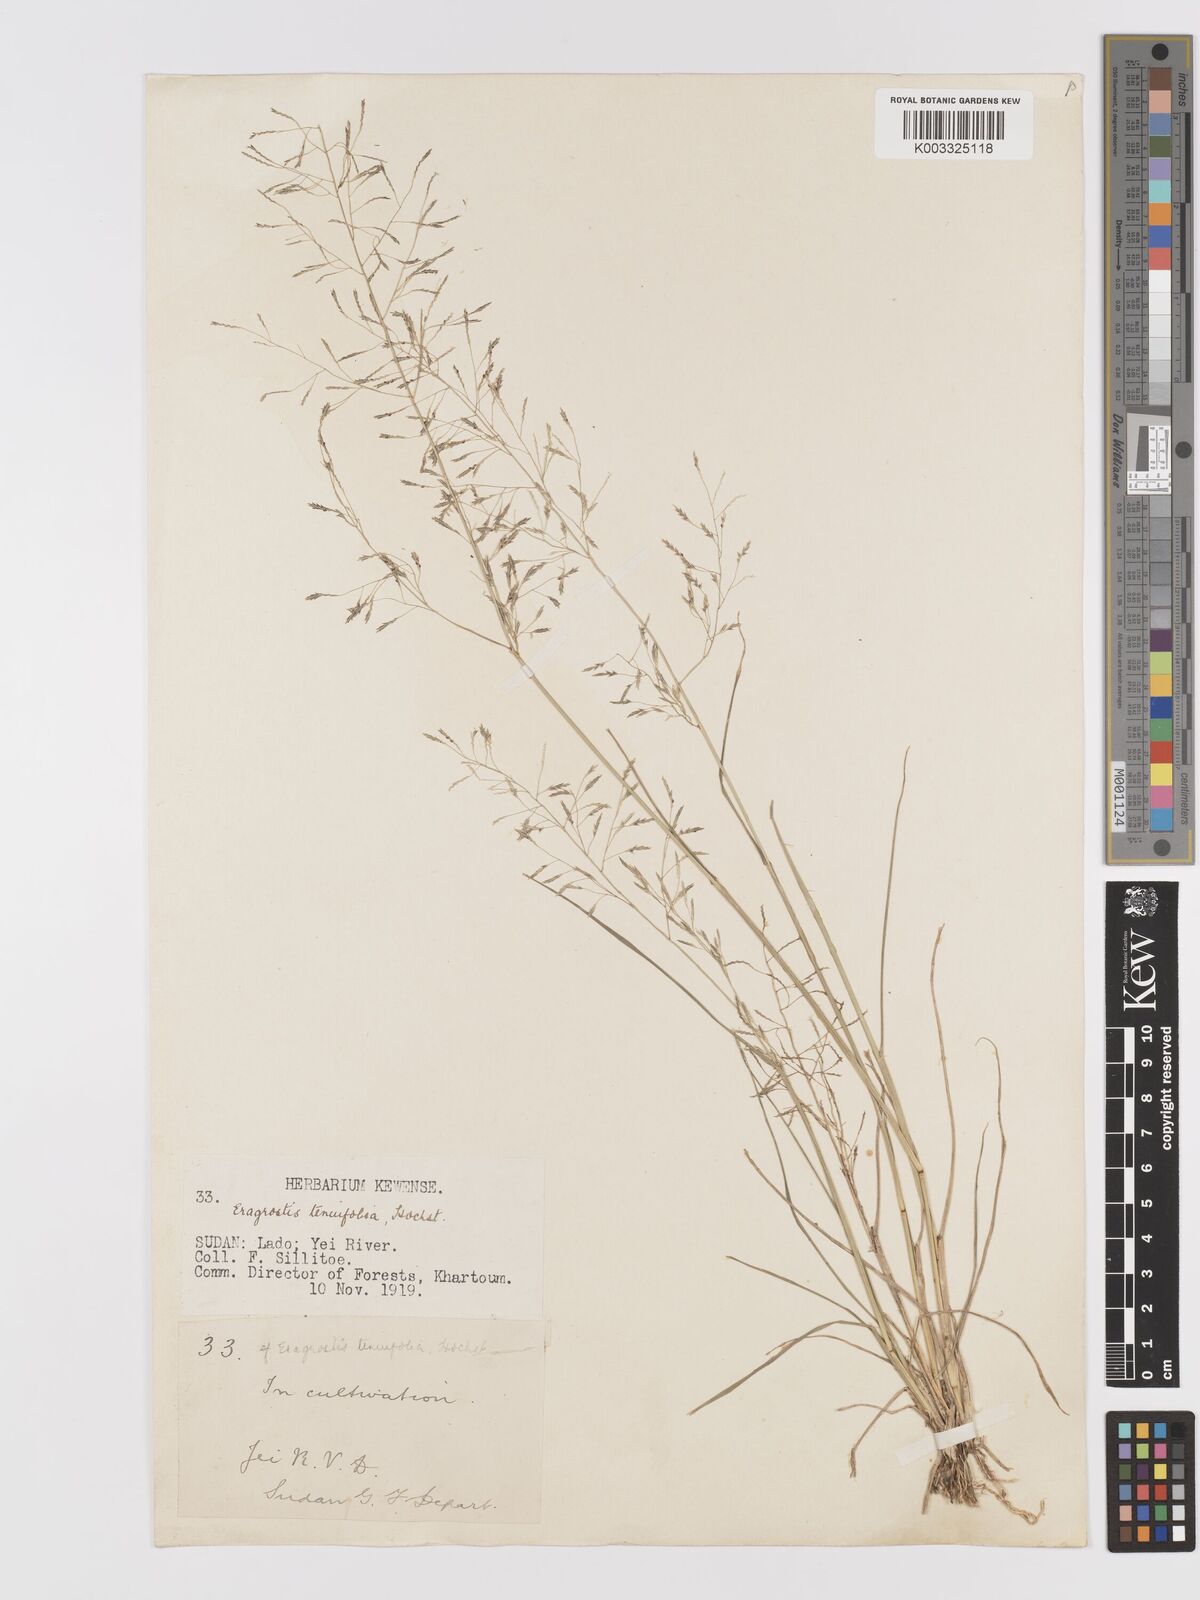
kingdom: Plantae
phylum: Tracheophyta
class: Liliopsida
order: Poales
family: Poaceae
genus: Eragrostis
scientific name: Eragrostis tenuifolia
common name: Elastic grass
